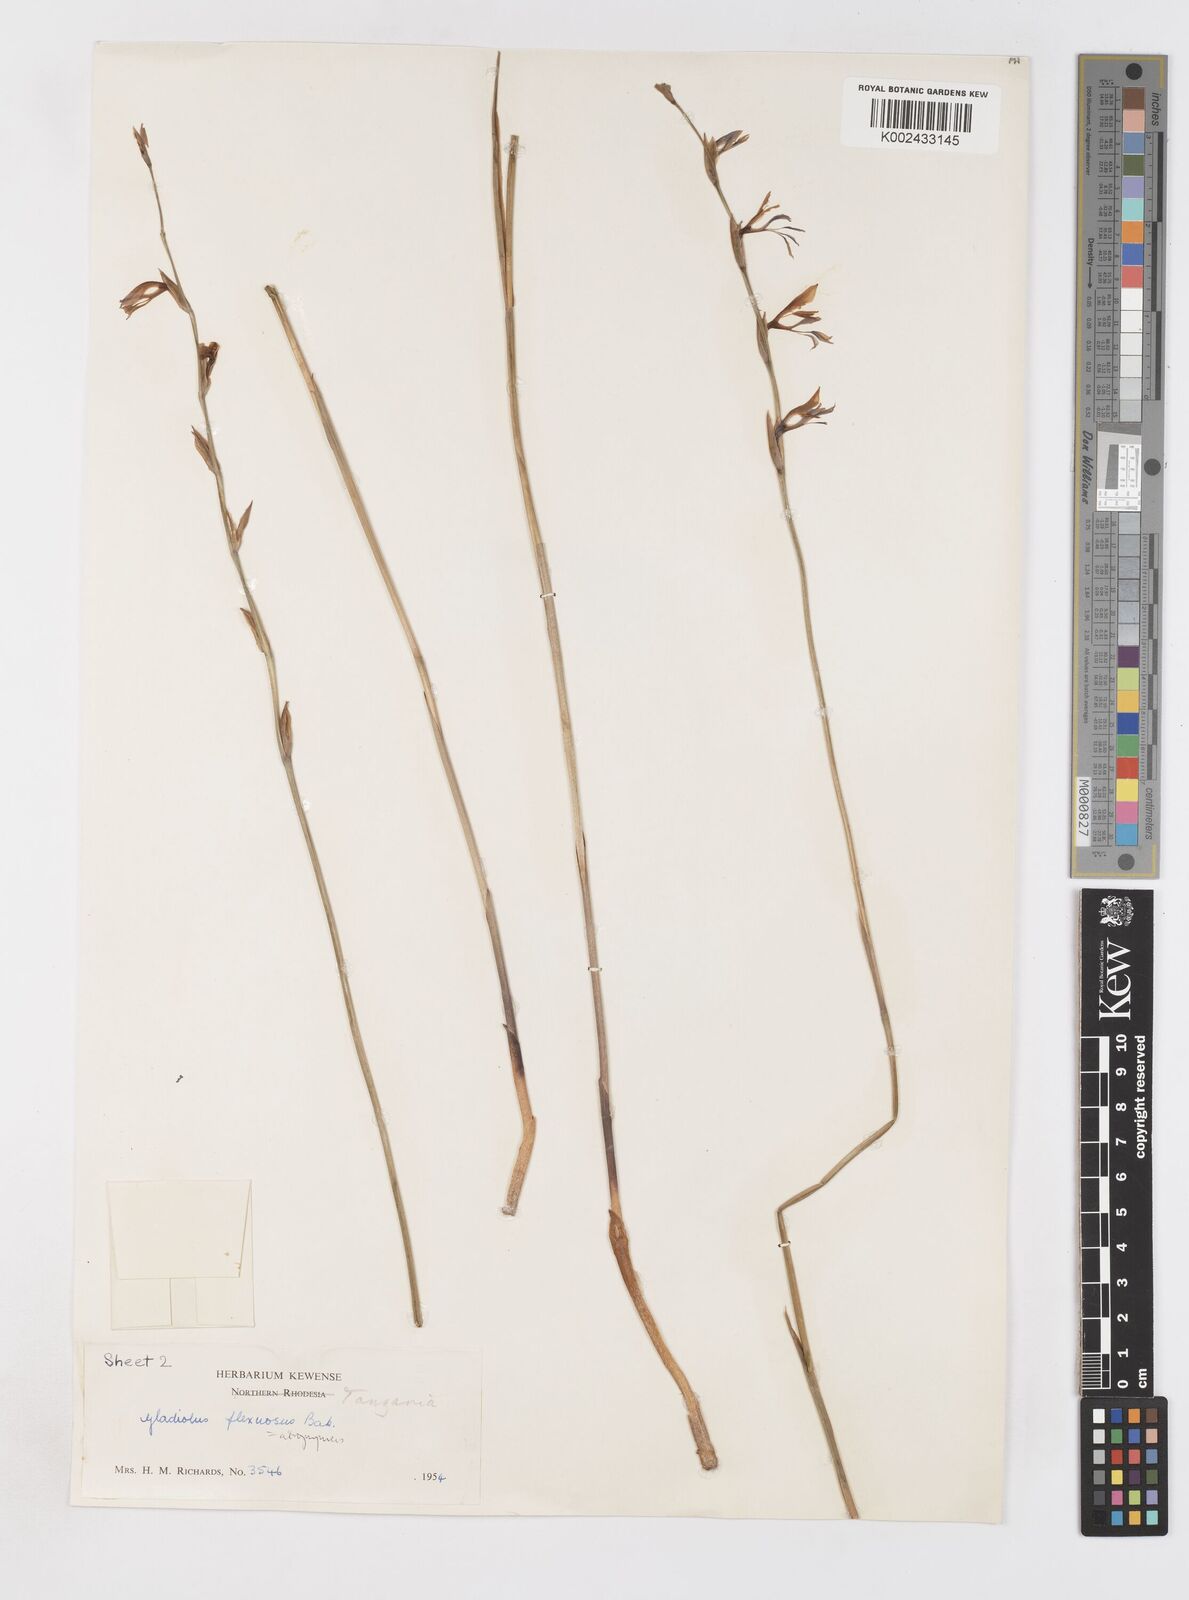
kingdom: Plantae
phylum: Tracheophyta
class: Liliopsida
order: Asparagales
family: Iridaceae
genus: Gladiolus
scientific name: Gladiolus unguiculatus
